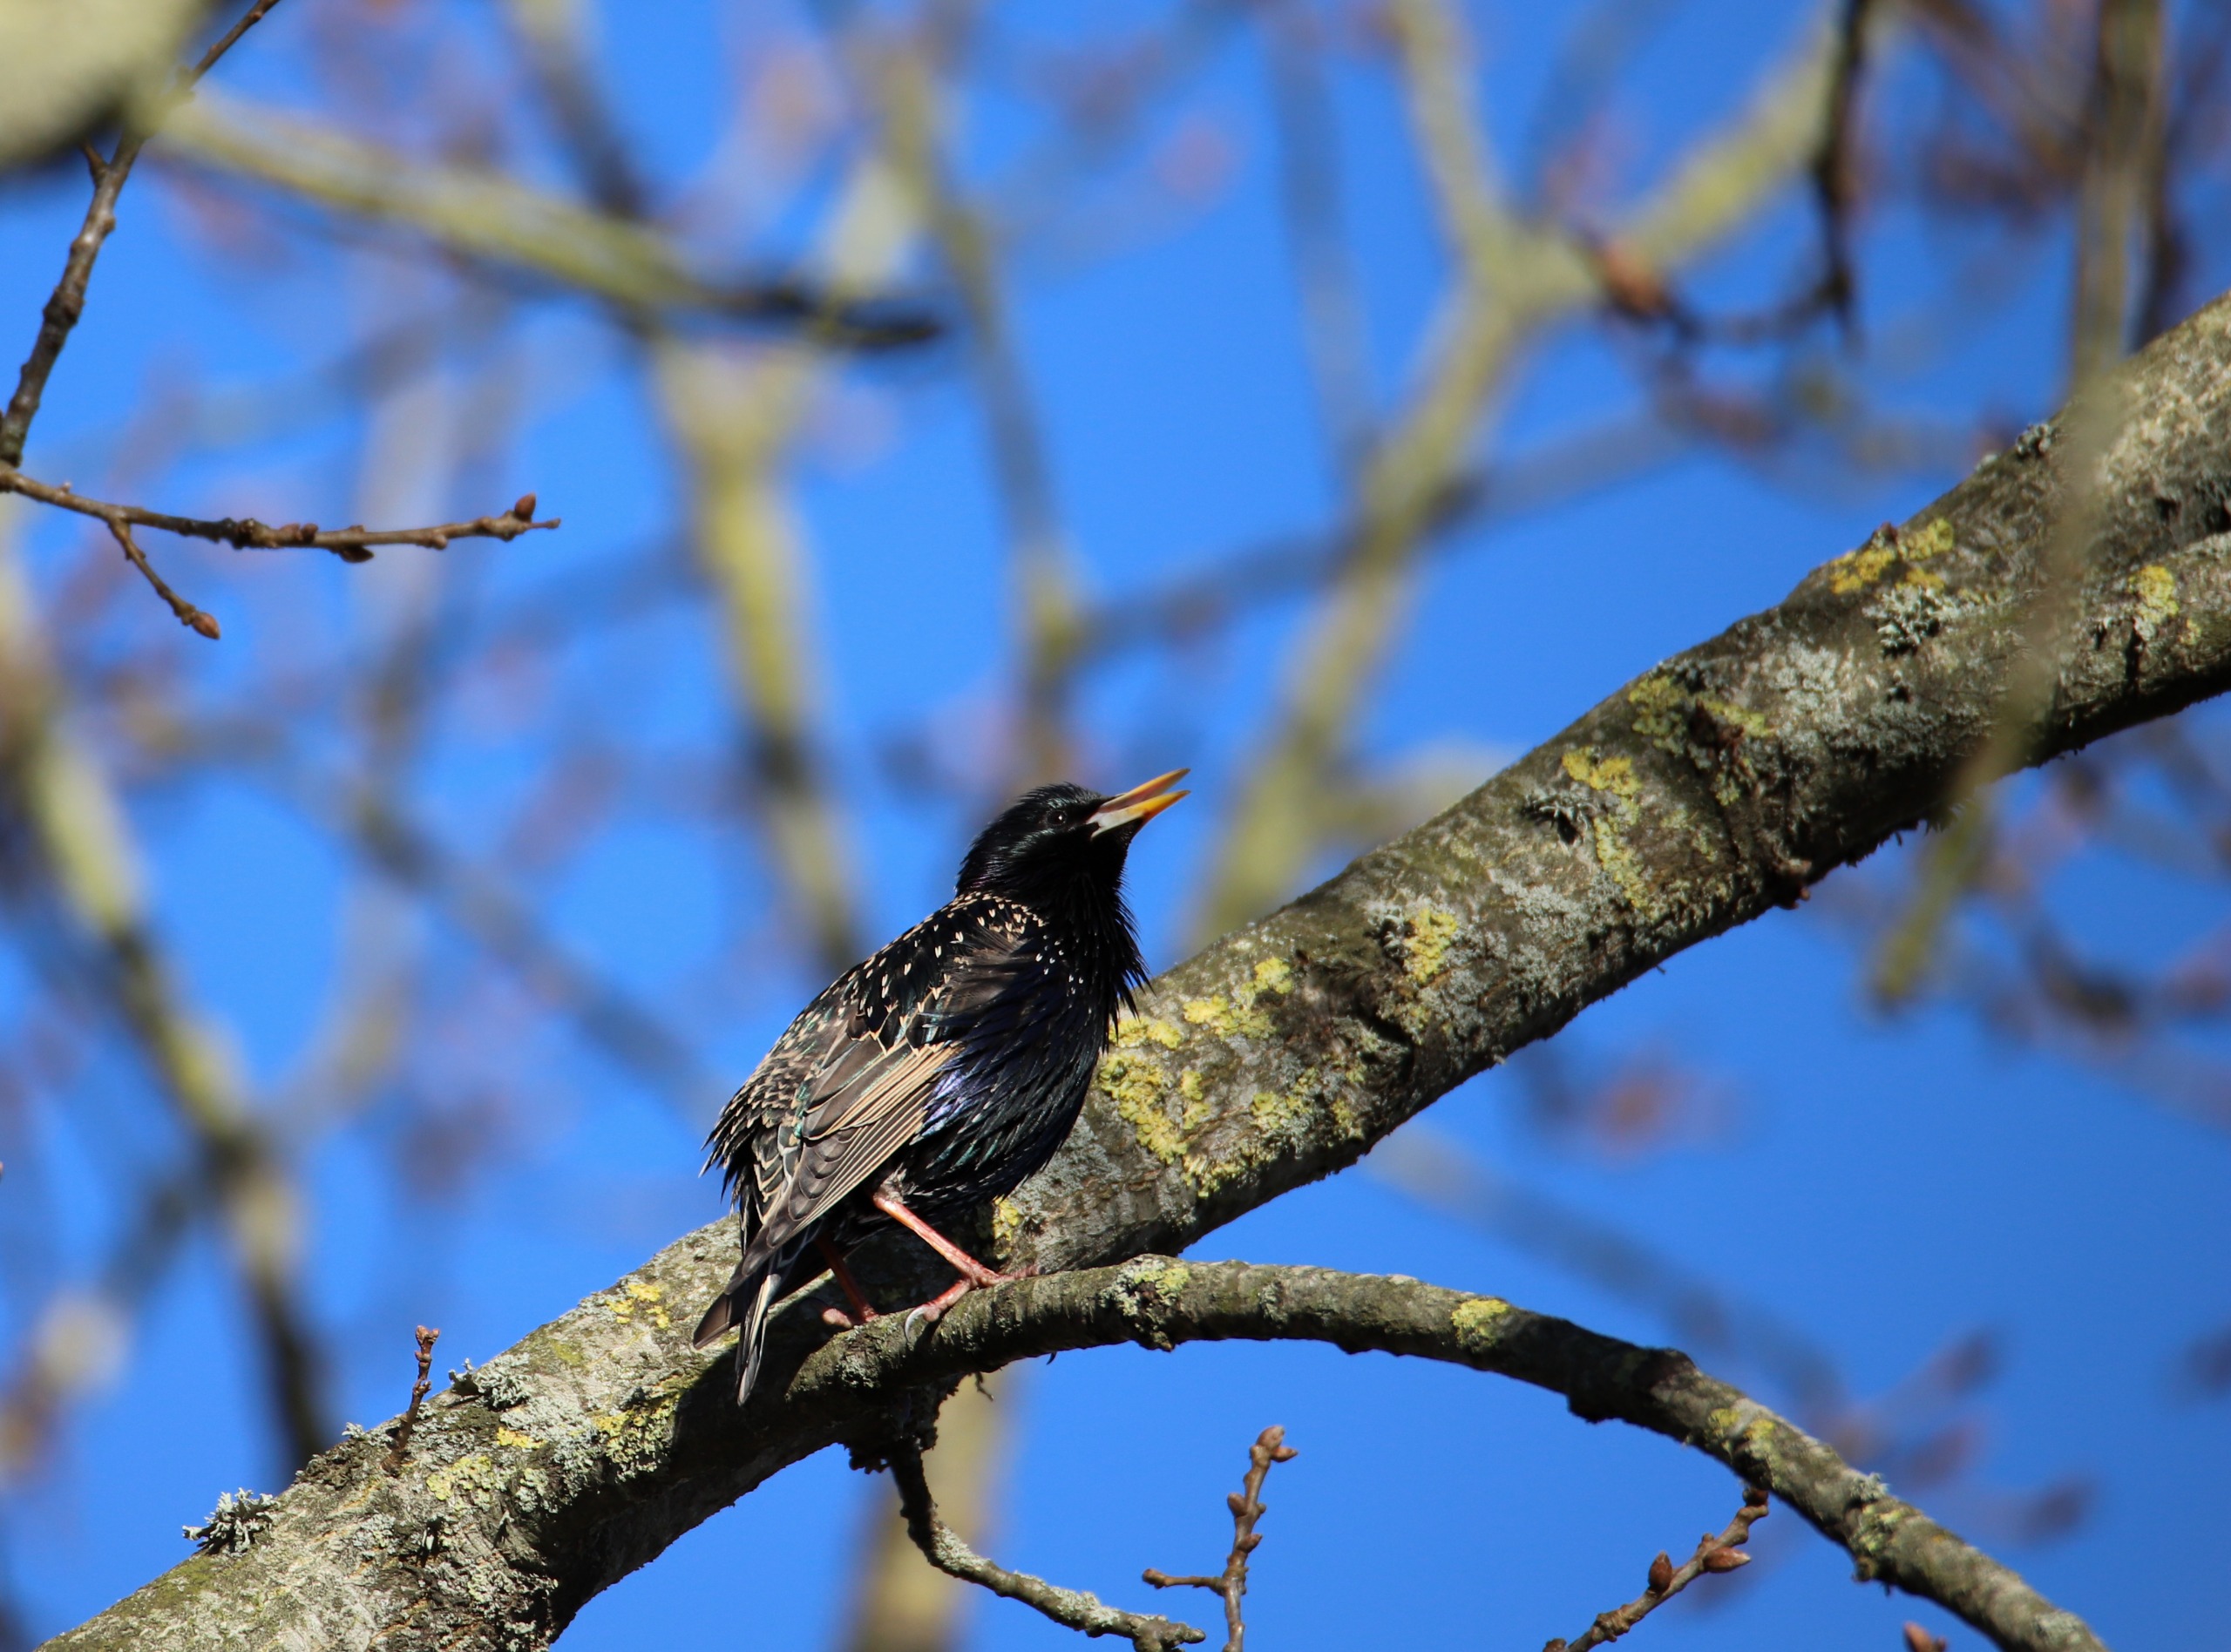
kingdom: Animalia
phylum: Chordata
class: Aves
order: Passeriformes
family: Sturnidae
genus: Sturnus
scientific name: Sturnus vulgaris
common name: Stær
